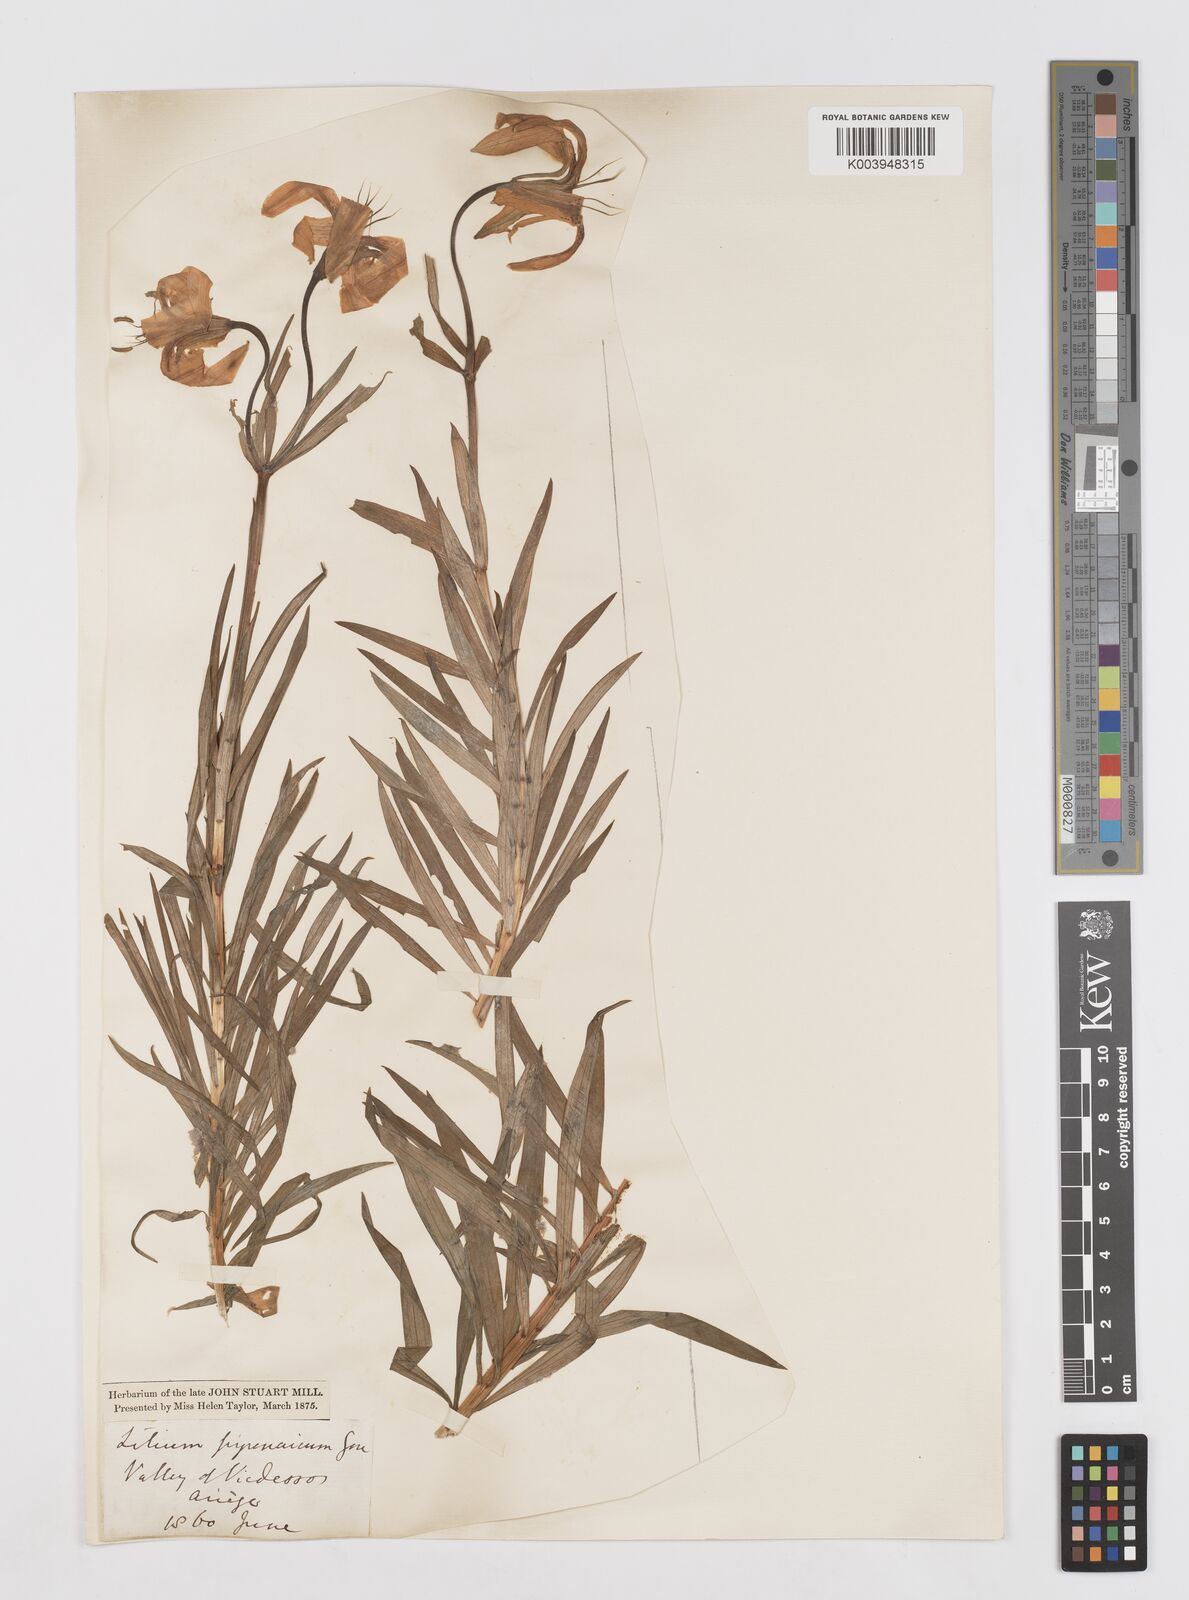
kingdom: Plantae
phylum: Tracheophyta
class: Liliopsida
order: Liliales
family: Liliaceae
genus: Lilium
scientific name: Lilium pyrenaicum
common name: Pyrenean lily
